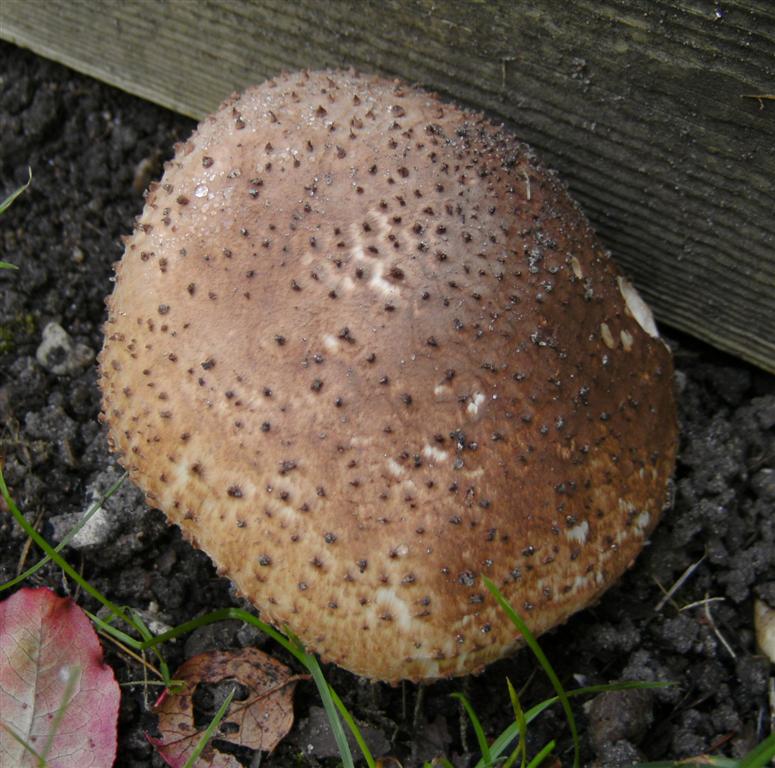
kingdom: Fungi
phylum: Basidiomycota
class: Agaricomycetes
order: Agaricales
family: Agaricaceae
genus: Echinoderma
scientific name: Echinoderma asperum
